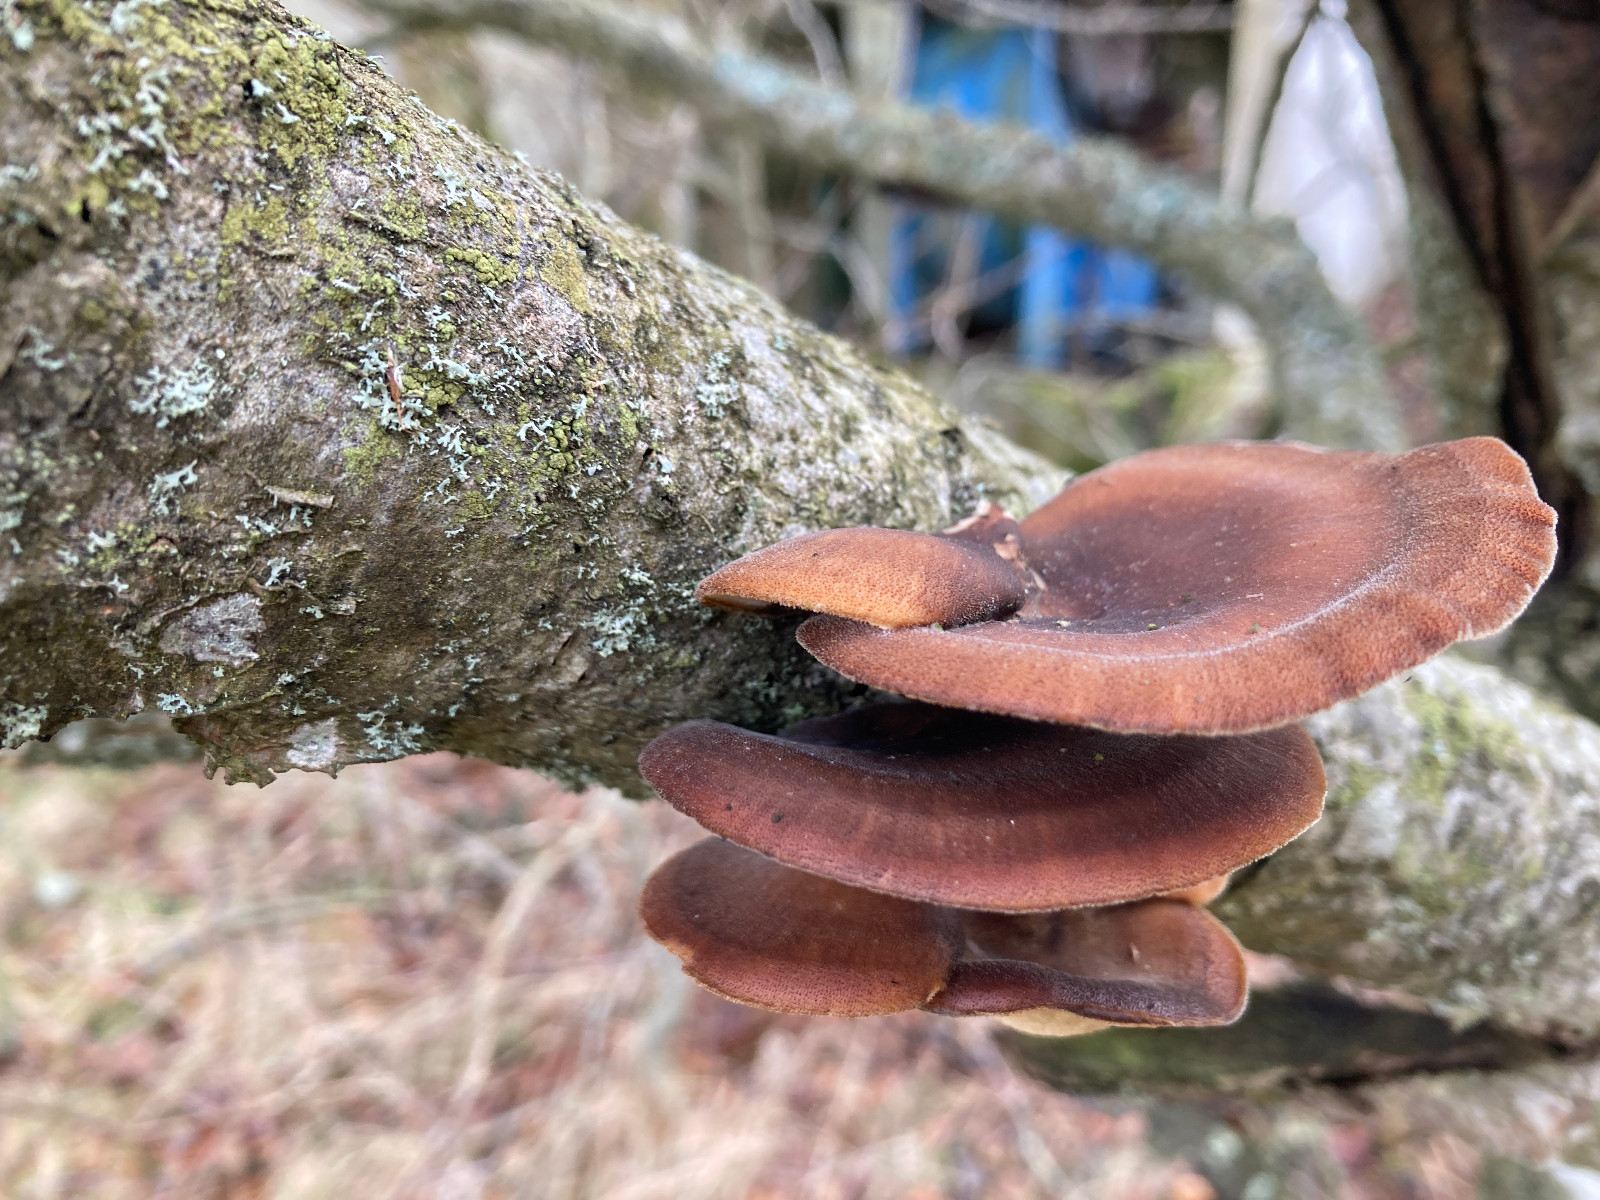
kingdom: Fungi
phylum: Basidiomycota
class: Agaricomycetes
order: Polyporales
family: Polyporaceae
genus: Lentinus
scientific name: Lentinus brumalis
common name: vinter-stilkporesvamp
